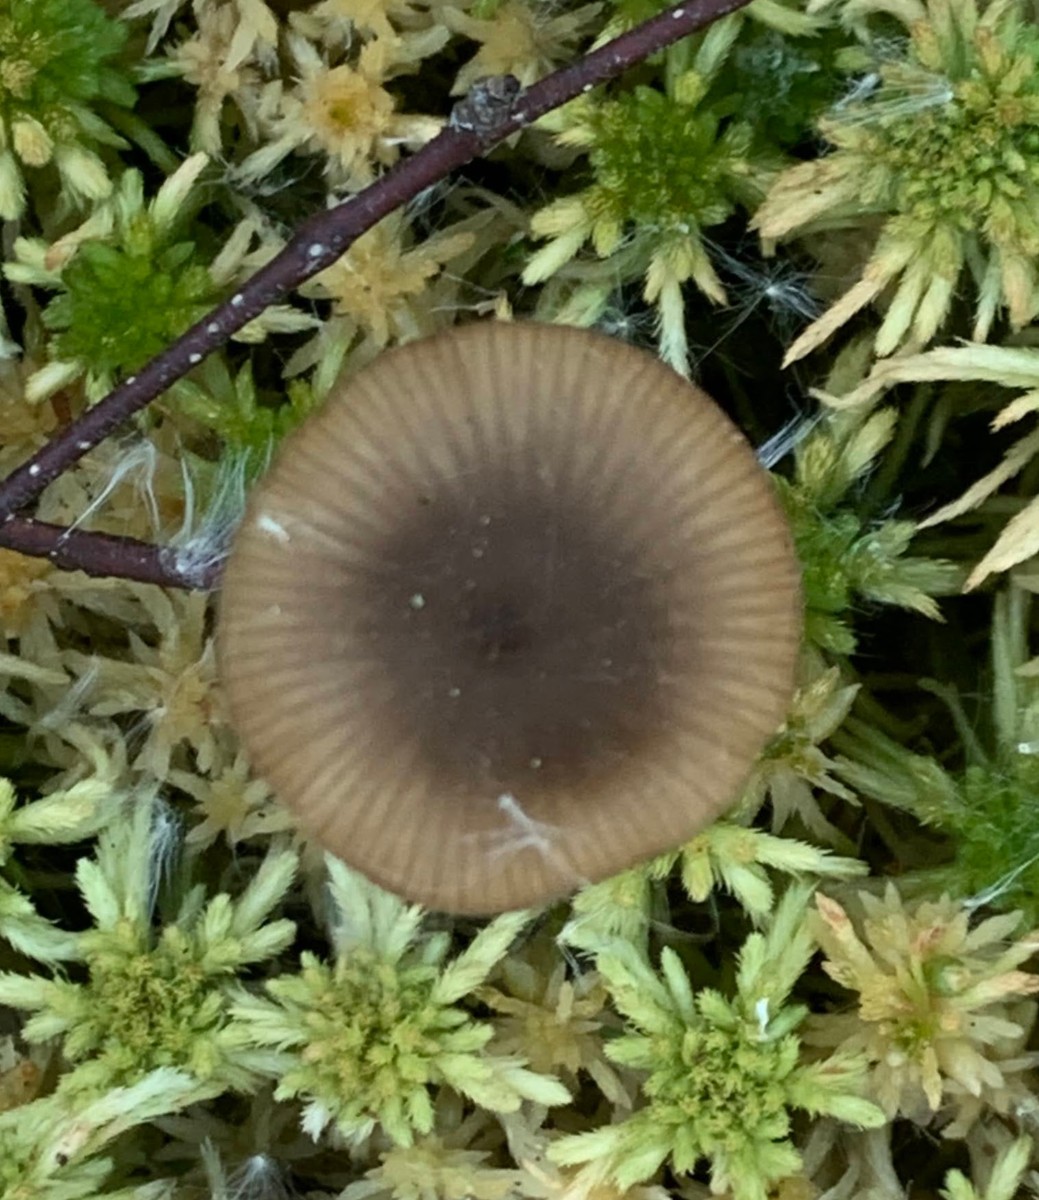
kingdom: Fungi
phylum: Basidiomycota
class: Agaricomycetes
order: Agaricales
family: Lyophyllaceae
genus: Sphagnurus
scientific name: Sphagnurus paluster
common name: tørvemos-gråblad
